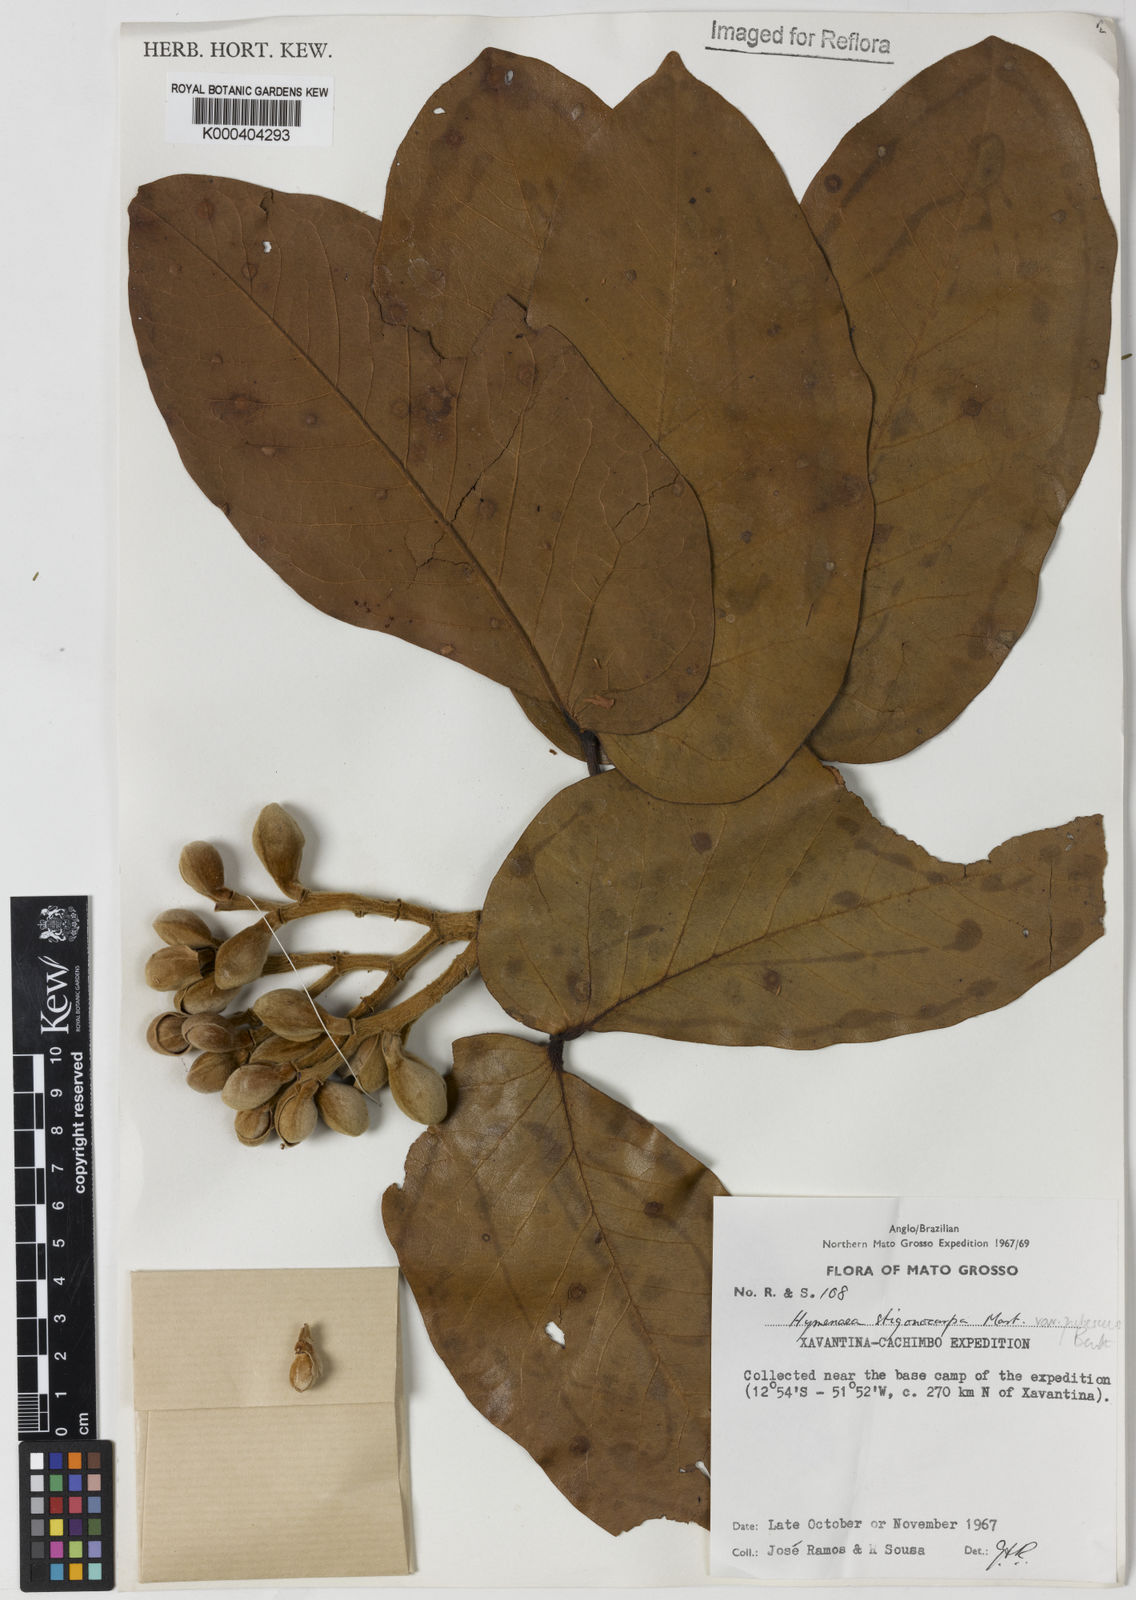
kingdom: Plantae
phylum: Tracheophyta
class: Magnoliopsida
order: Fabales
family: Fabaceae
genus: Hymenaea
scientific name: Hymenaea stigonocarpa
